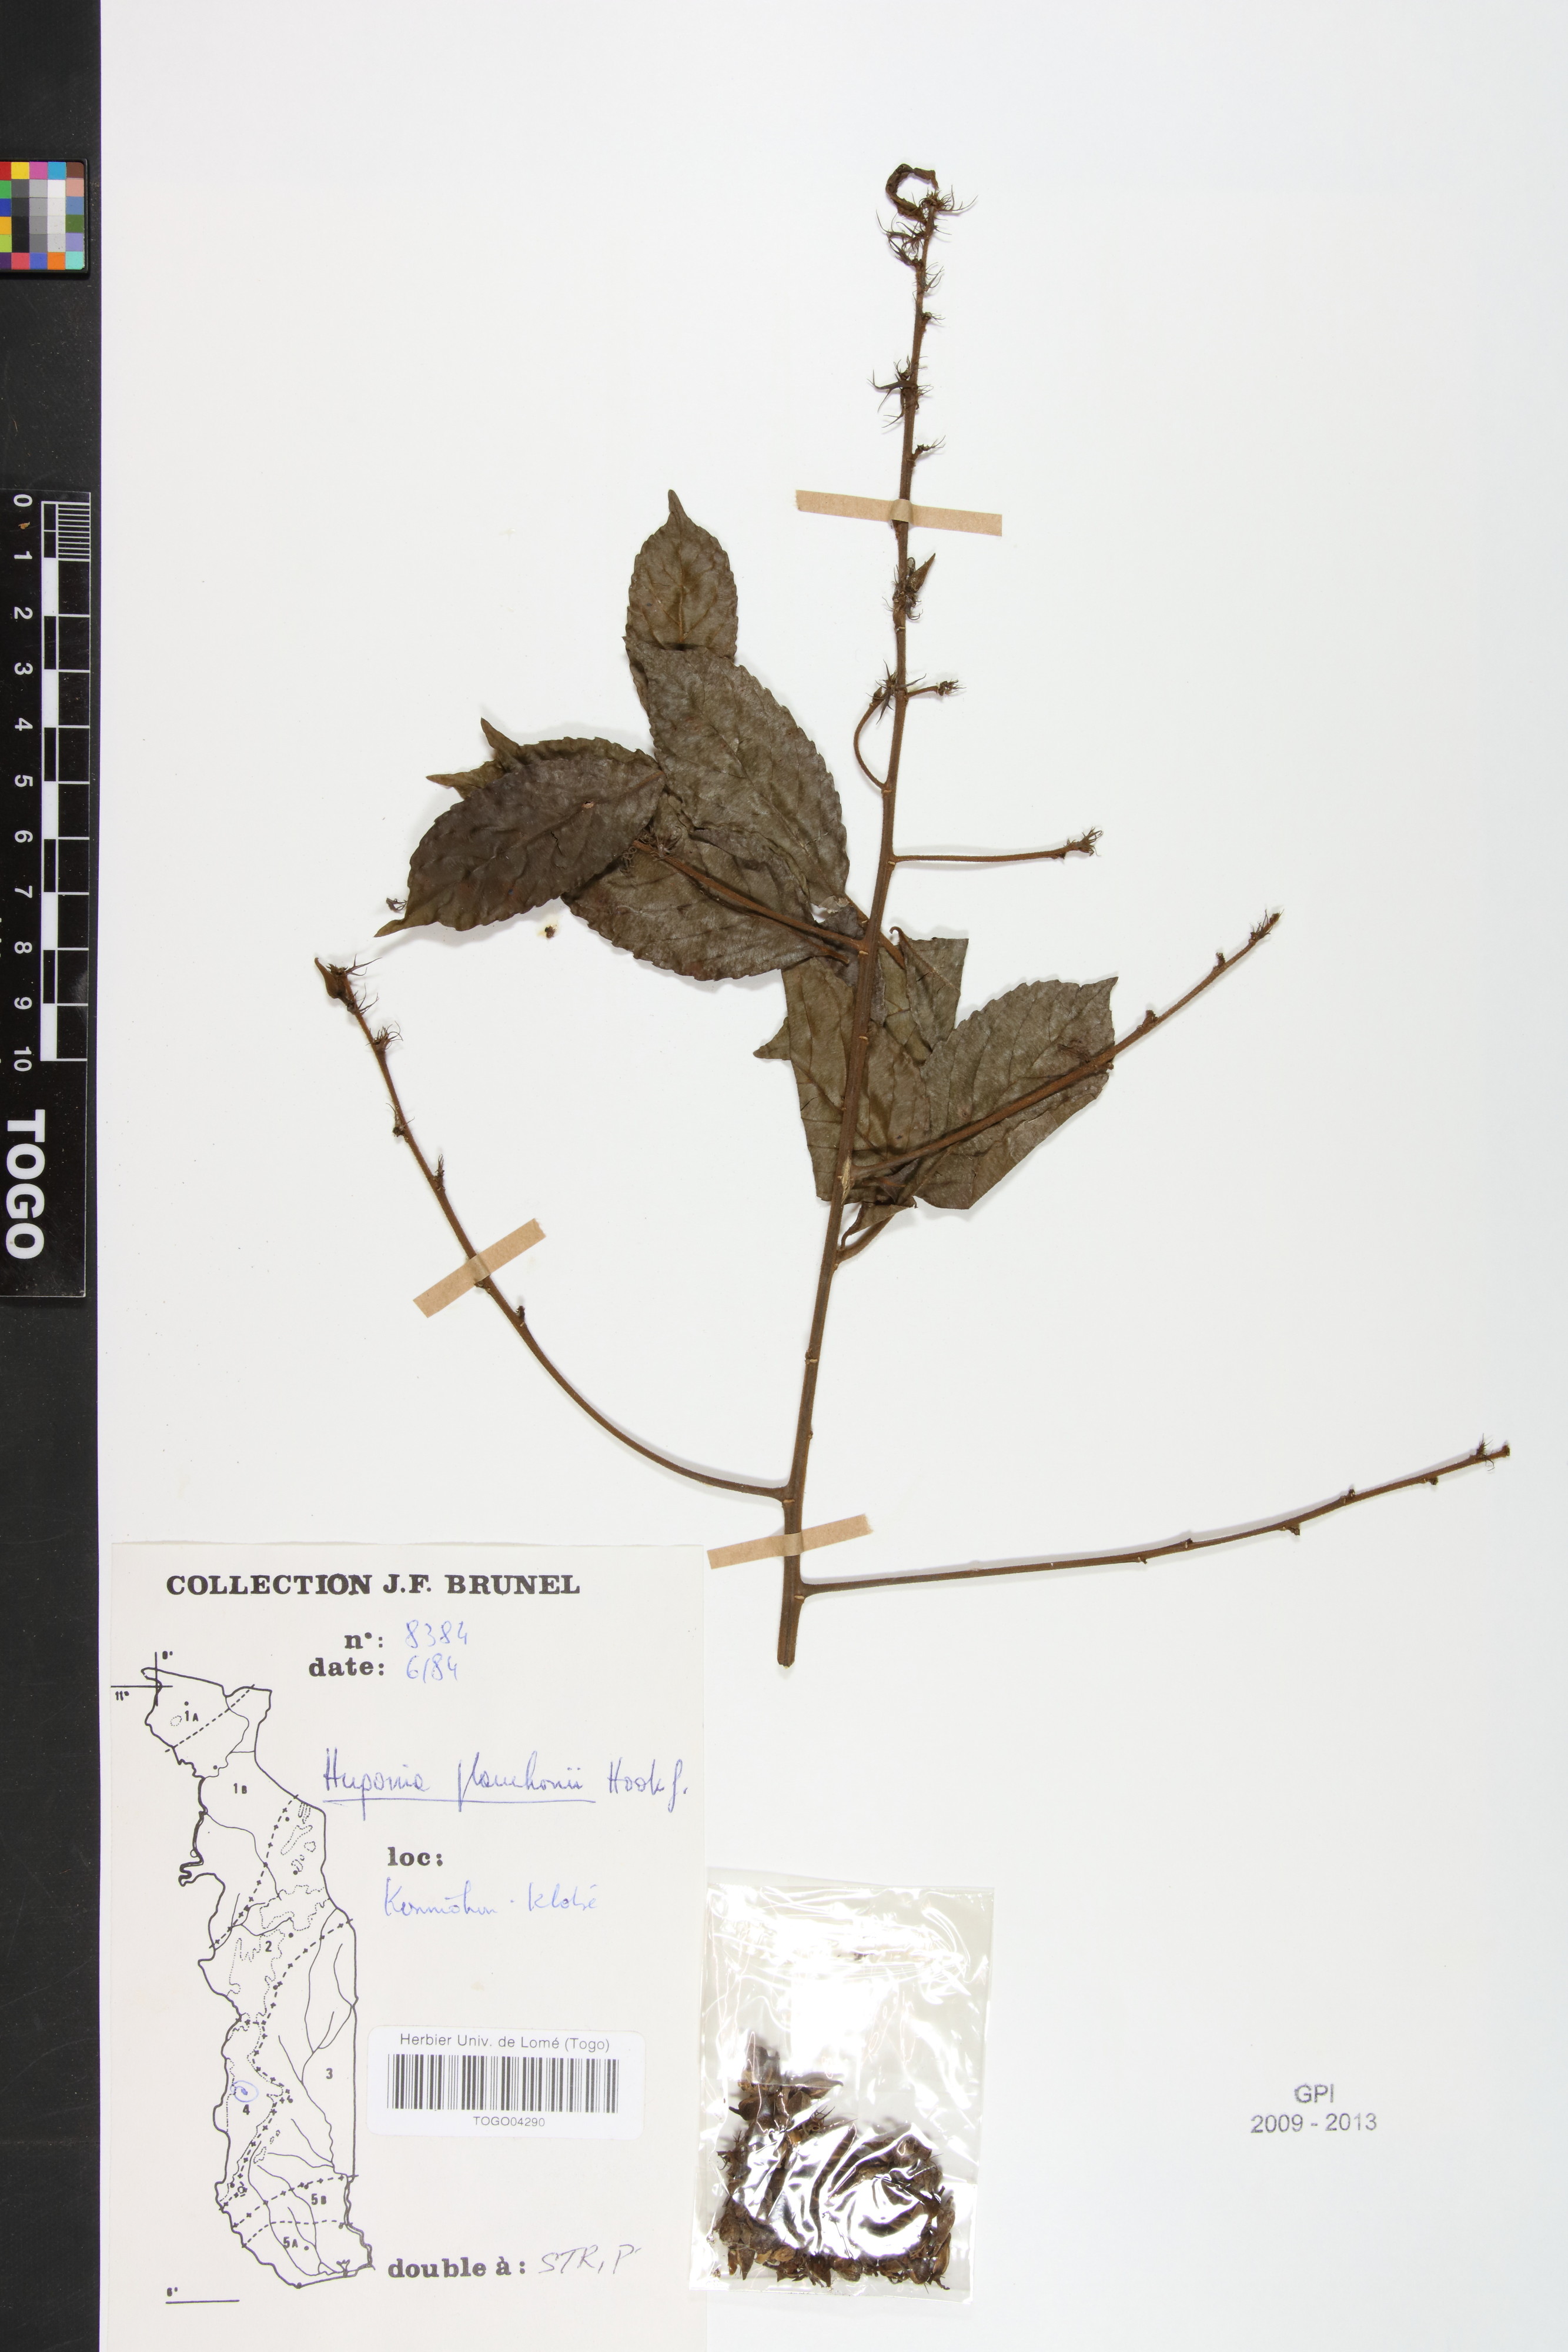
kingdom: Plantae
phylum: Tracheophyta
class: Magnoliopsida
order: Malpighiales
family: Linaceae
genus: Hugonia
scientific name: Hugonia planchonii
